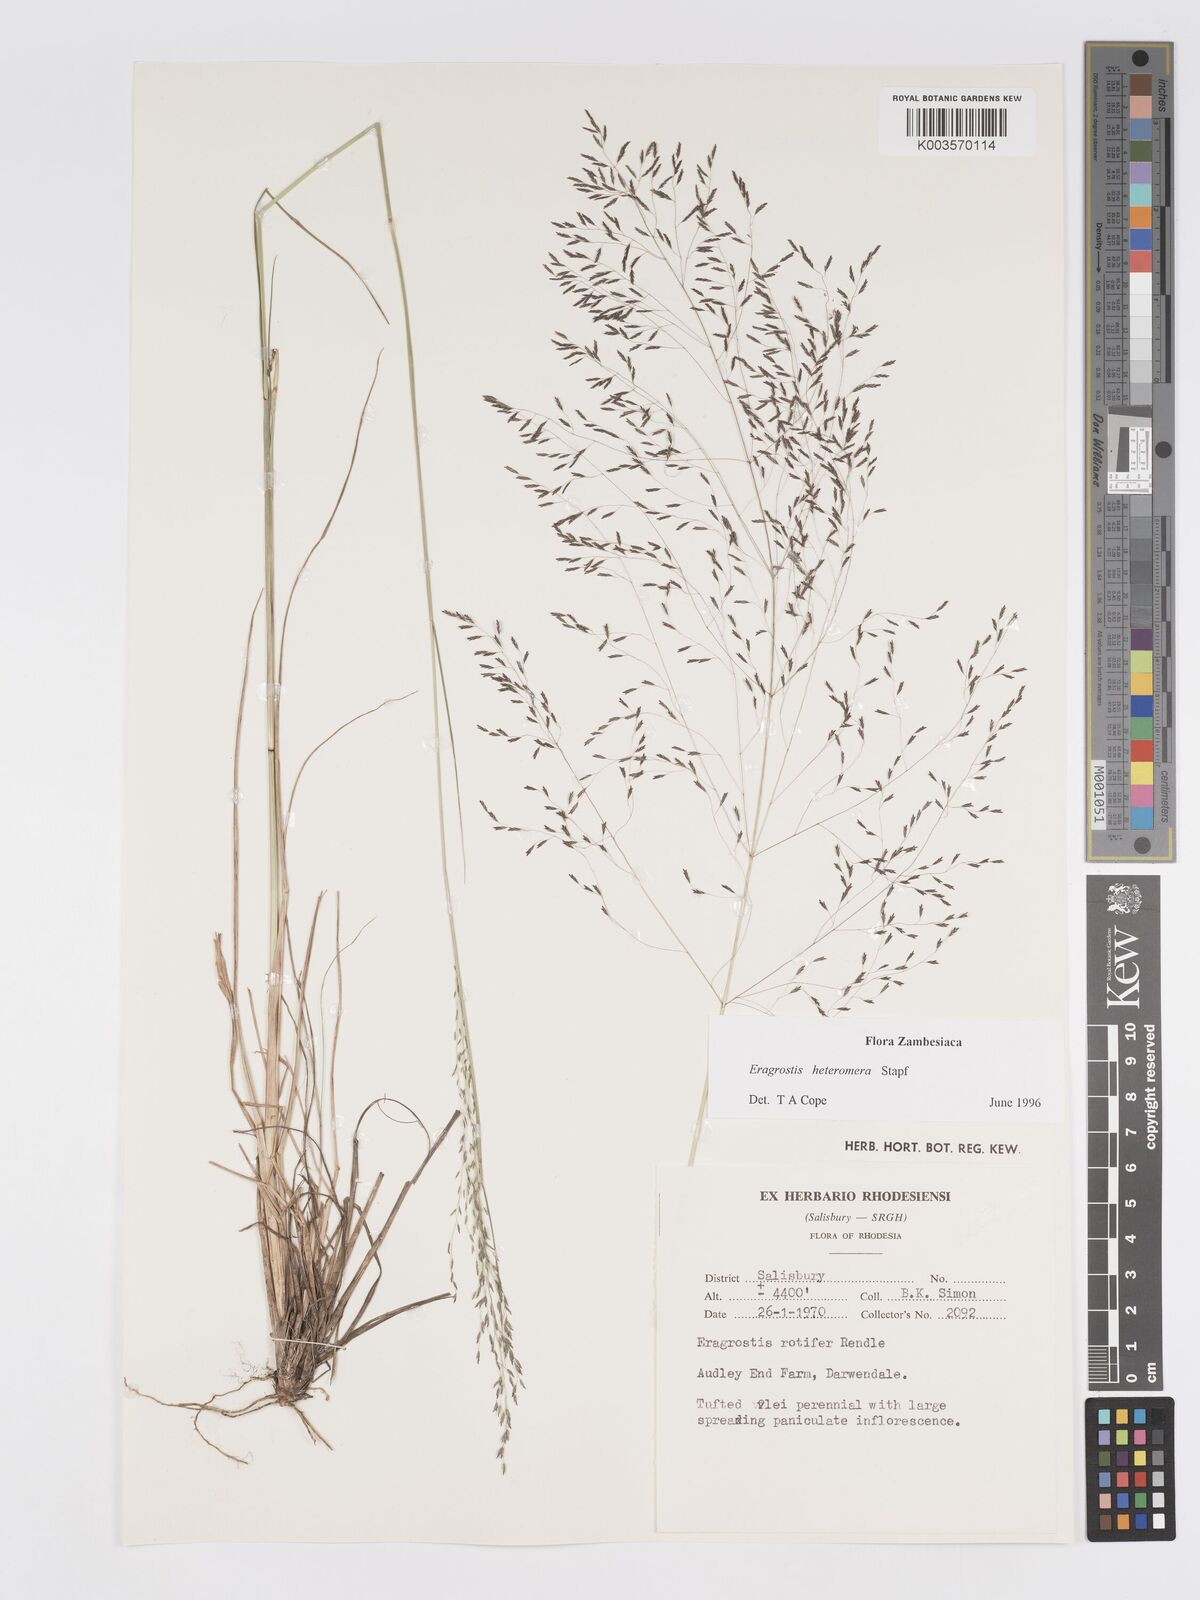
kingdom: Plantae
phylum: Tracheophyta
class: Liliopsida
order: Poales
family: Poaceae
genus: Eragrostis
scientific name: Eragrostis heteromera
